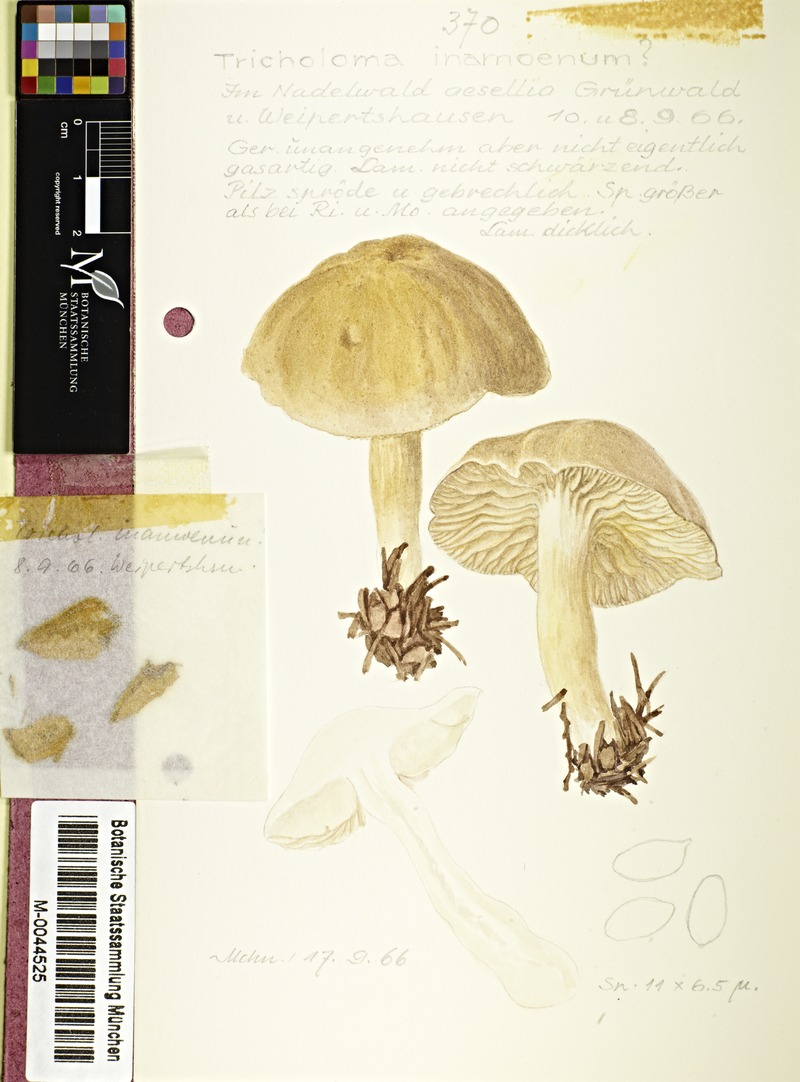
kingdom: Fungi
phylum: Basidiomycota
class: Agaricomycetes
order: Agaricales
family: Tricholomataceae
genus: Tricholoma
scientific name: Tricholoma inamoenum
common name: Gassy knight
